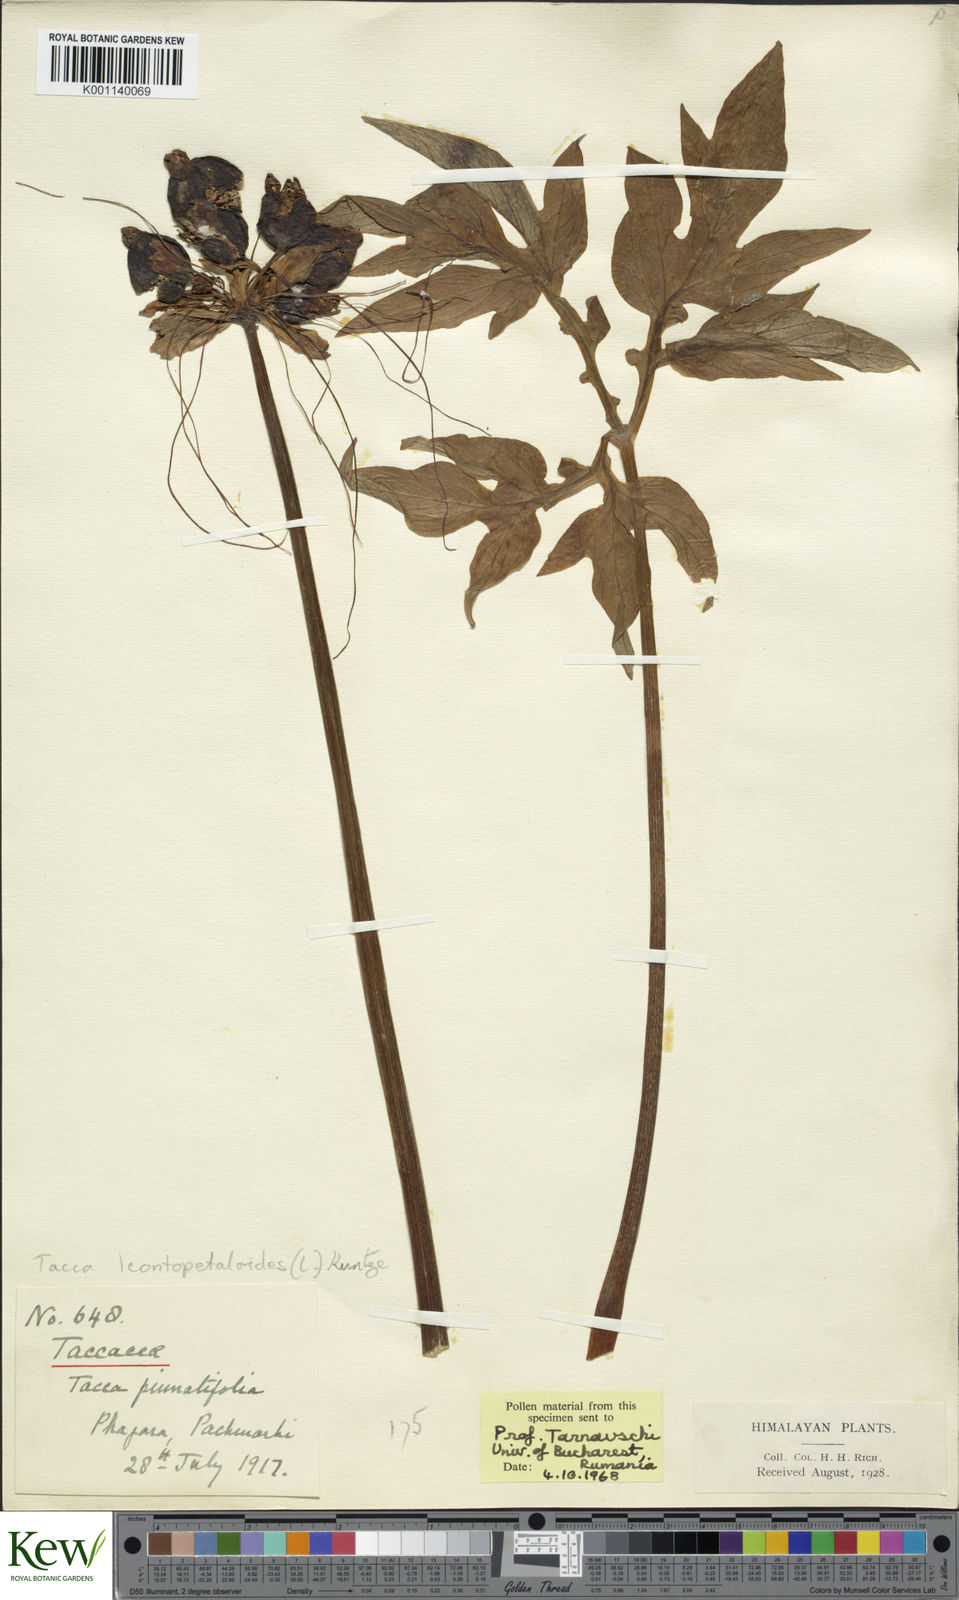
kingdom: Plantae
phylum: Tracheophyta
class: Liliopsida
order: Dioscoreales
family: Dioscoreaceae
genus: Tacca
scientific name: Tacca leontopetaloides
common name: Arrowroot
